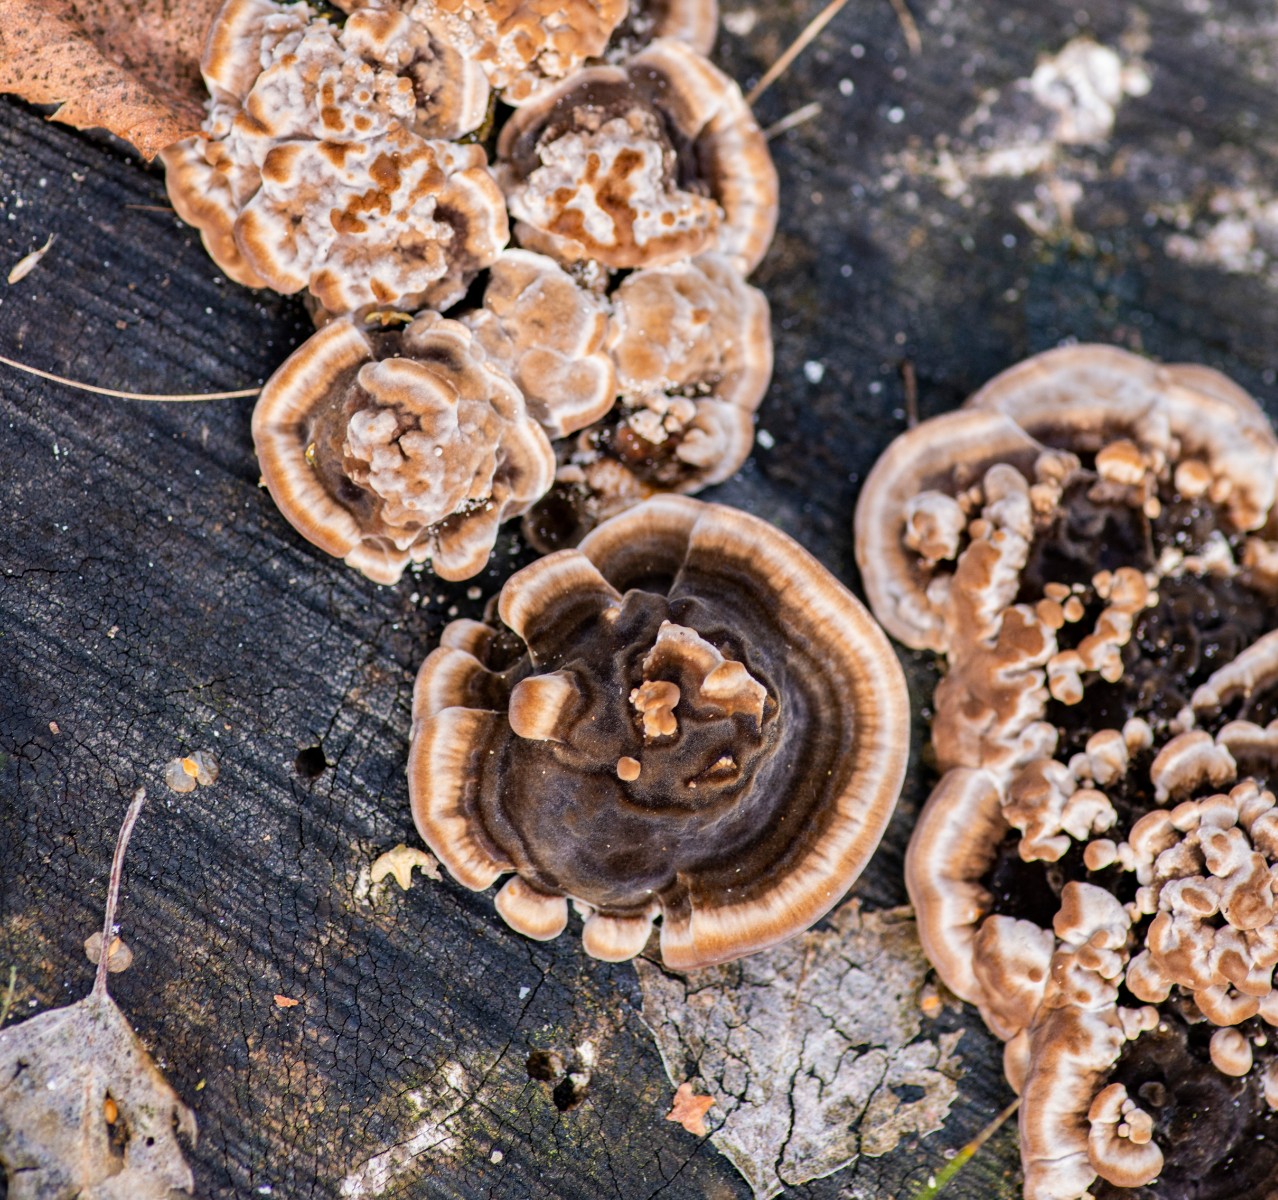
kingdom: Fungi
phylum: Basidiomycota
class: Agaricomycetes
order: Polyporales
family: Polyporaceae
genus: Trametes
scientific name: Trametes versicolor
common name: broget læderporesvamp
